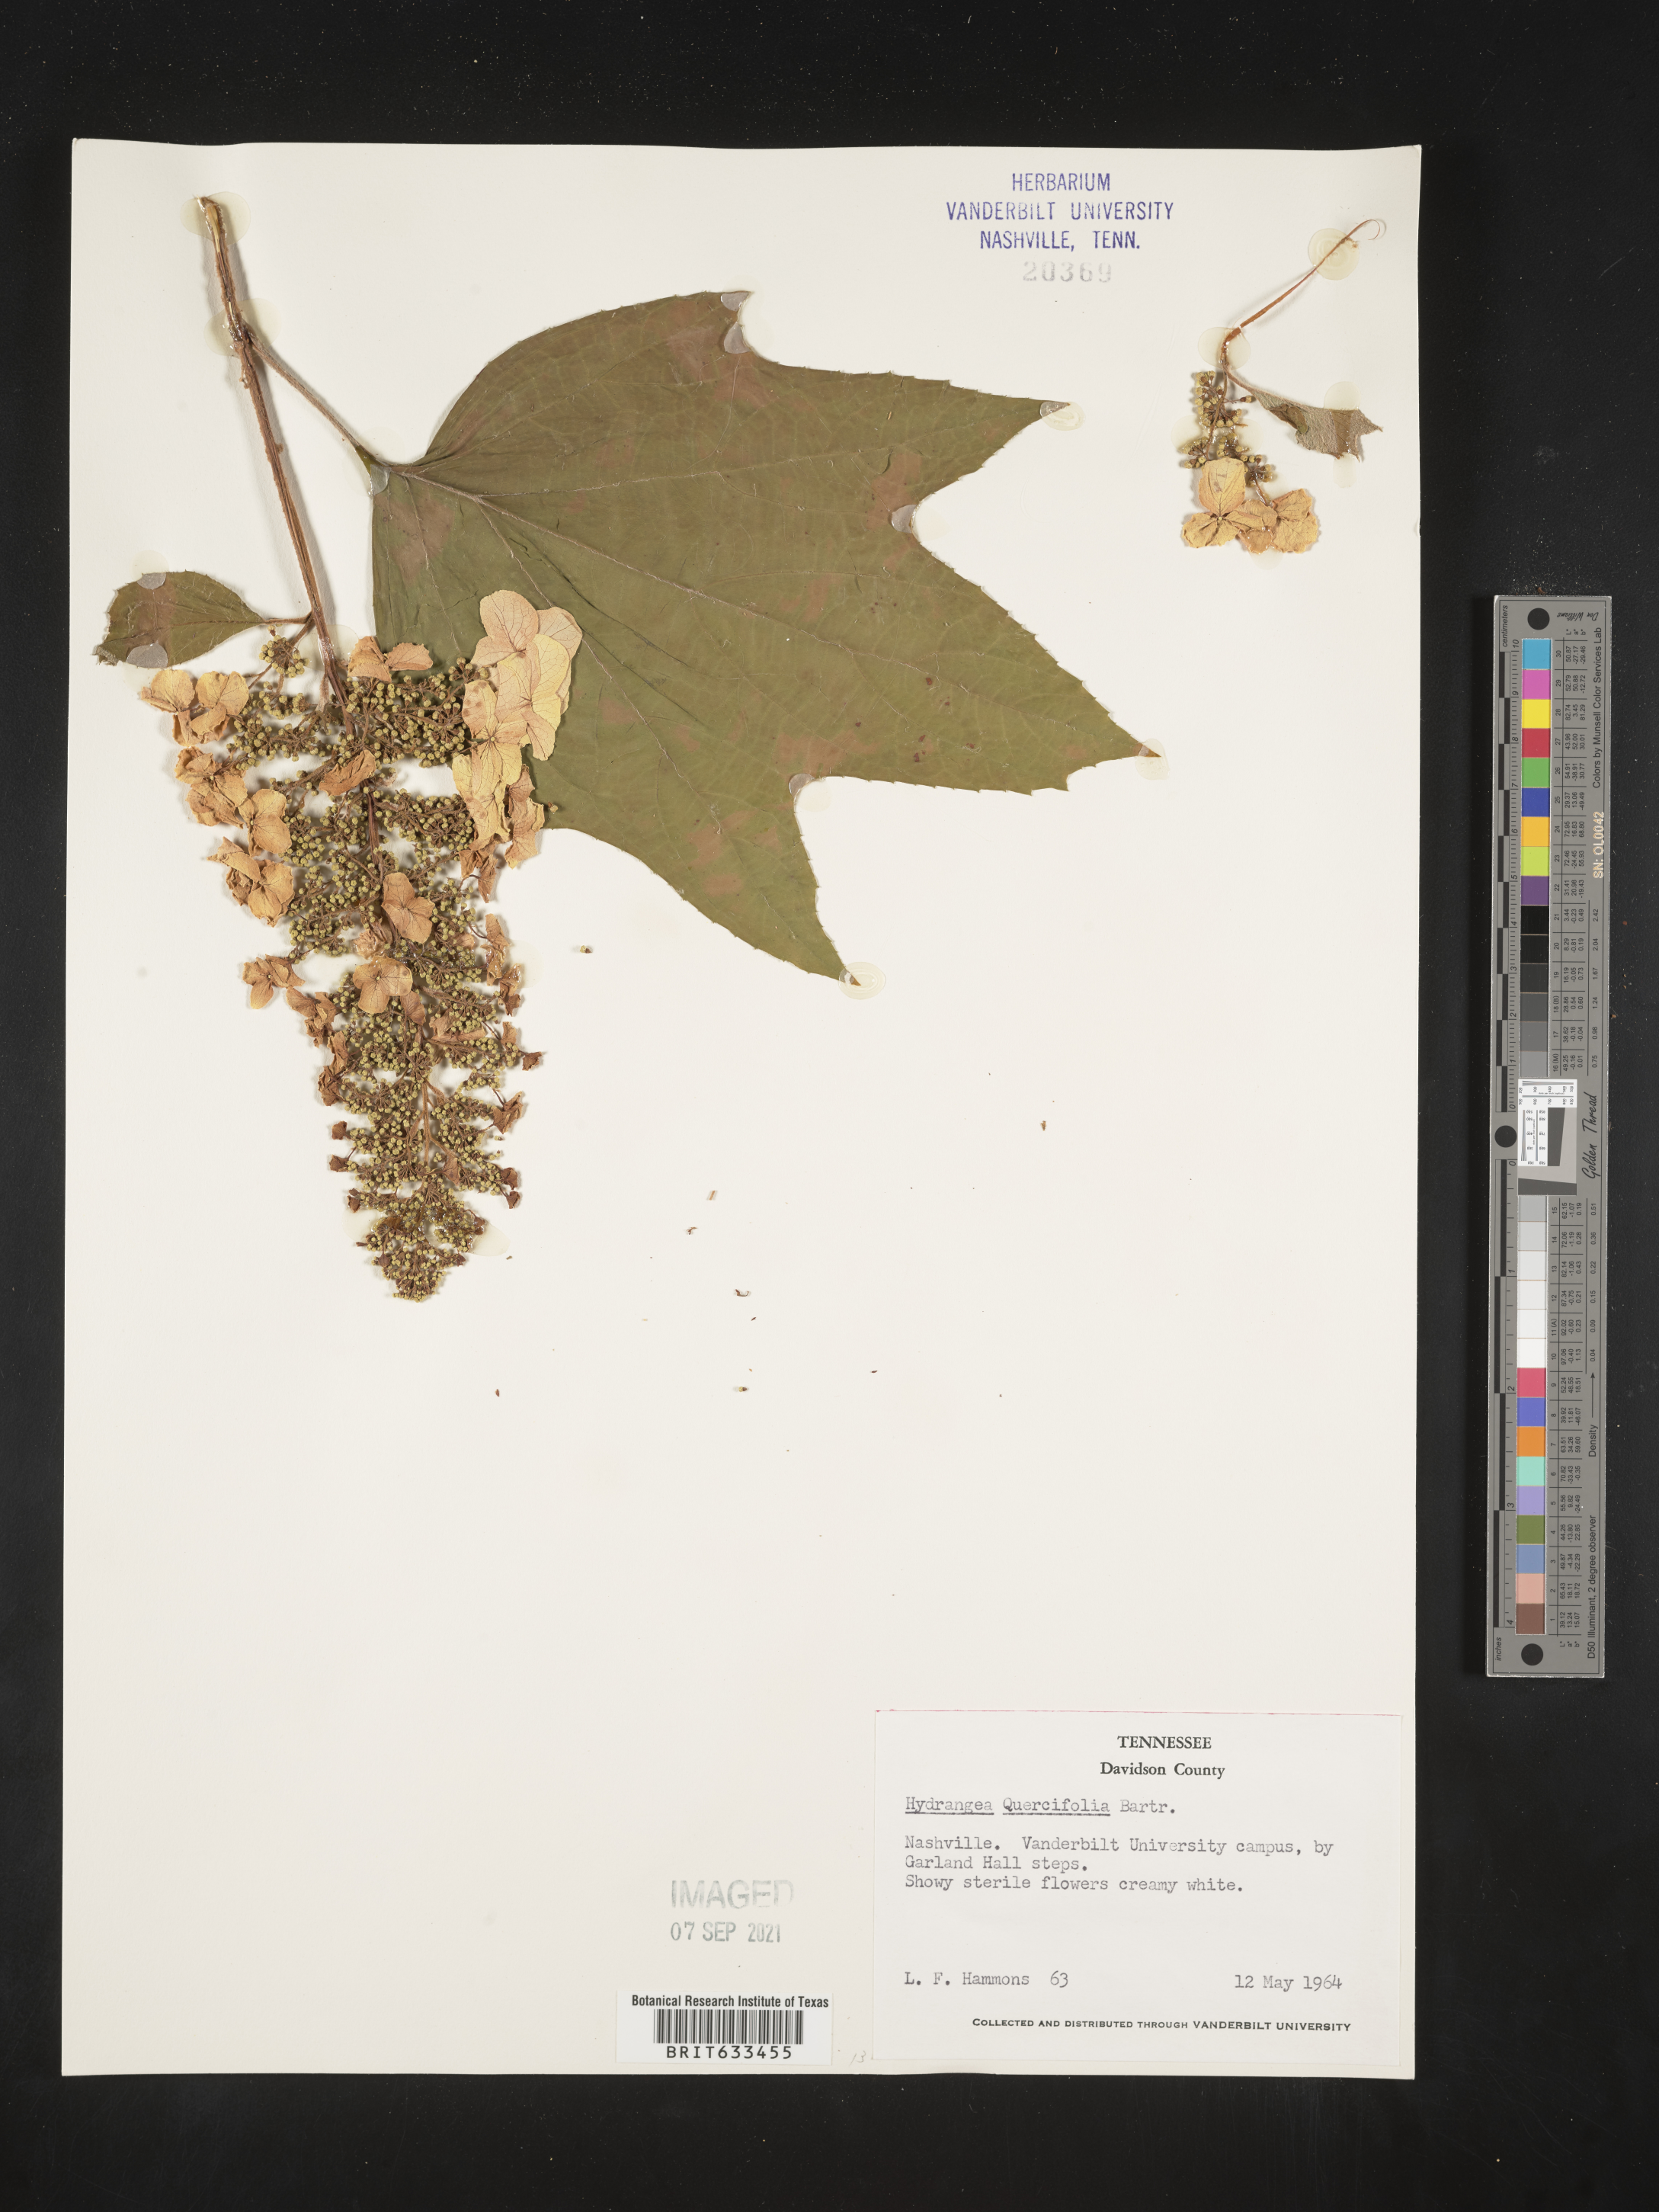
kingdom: Plantae
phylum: Tracheophyta
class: Magnoliopsida
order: Cornales
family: Hydrangeaceae
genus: Hydrangea
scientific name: Hydrangea
